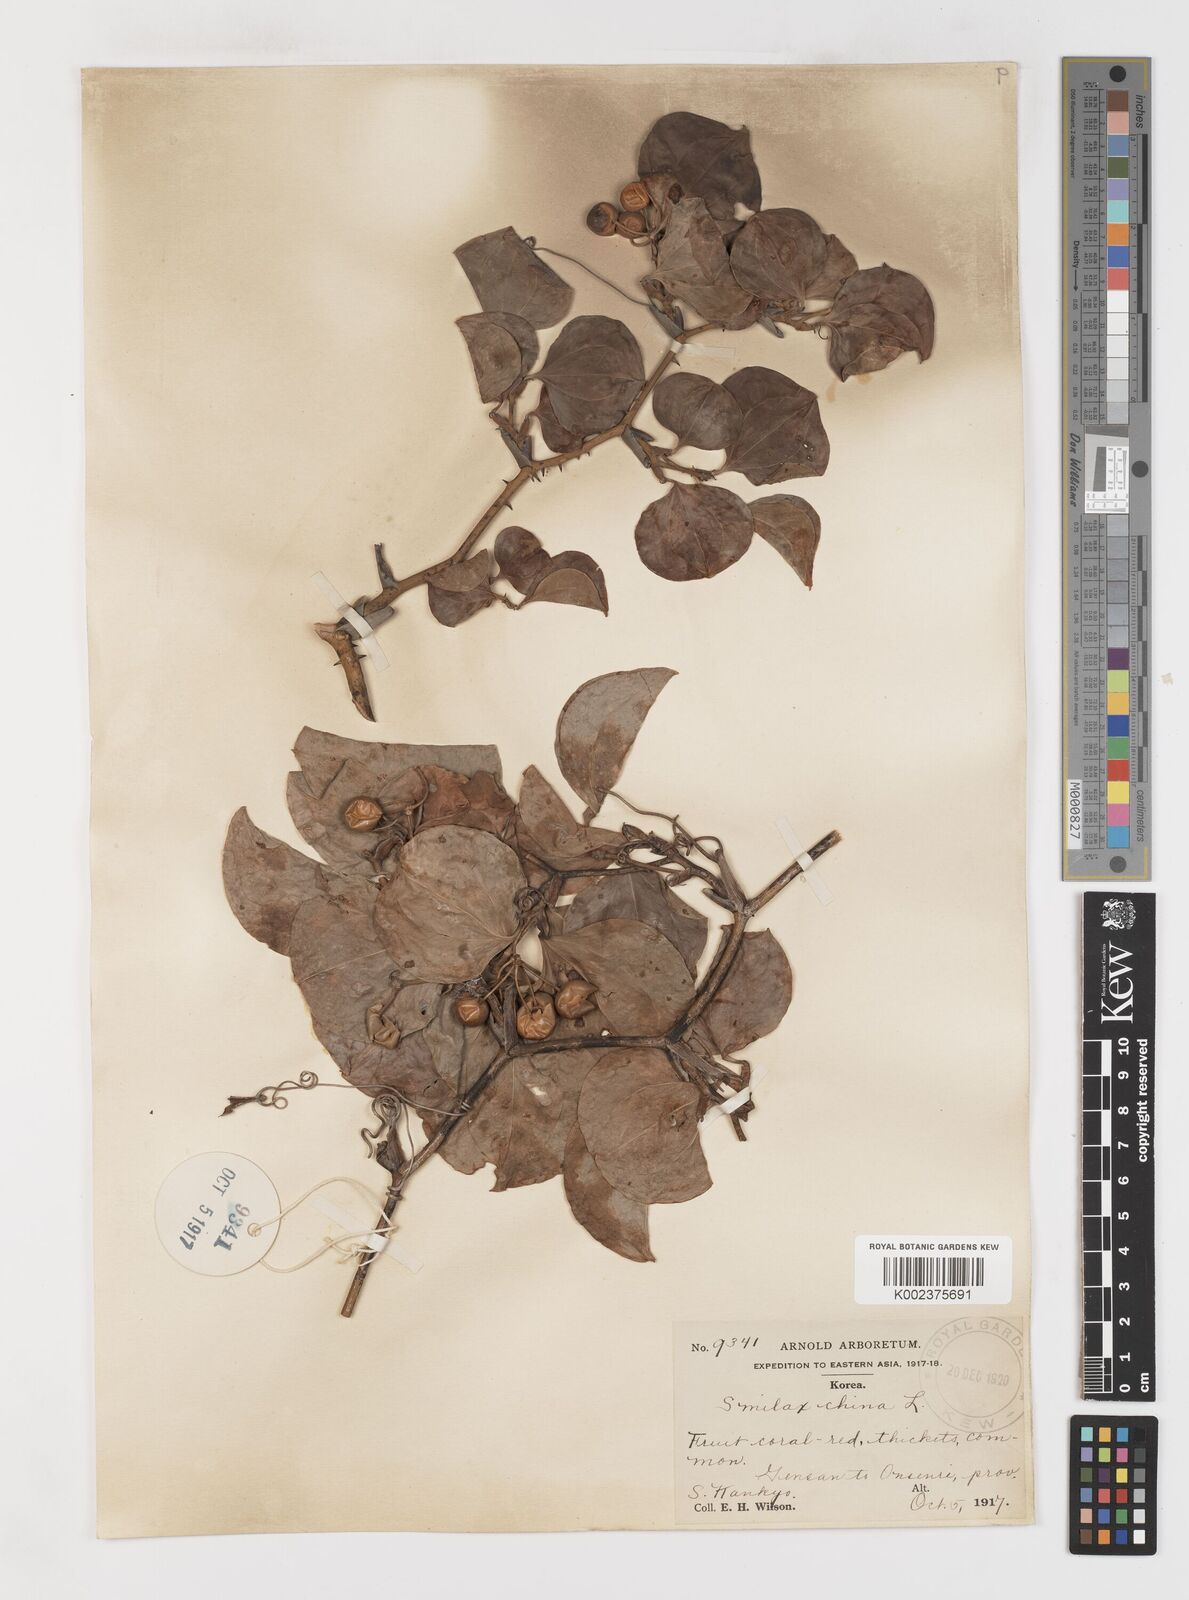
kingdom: Plantae
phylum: Tracheophyta
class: Liliopsida
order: Liliales
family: Smilacaceae
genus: Smilax
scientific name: Smilax china
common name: Chinaroot
